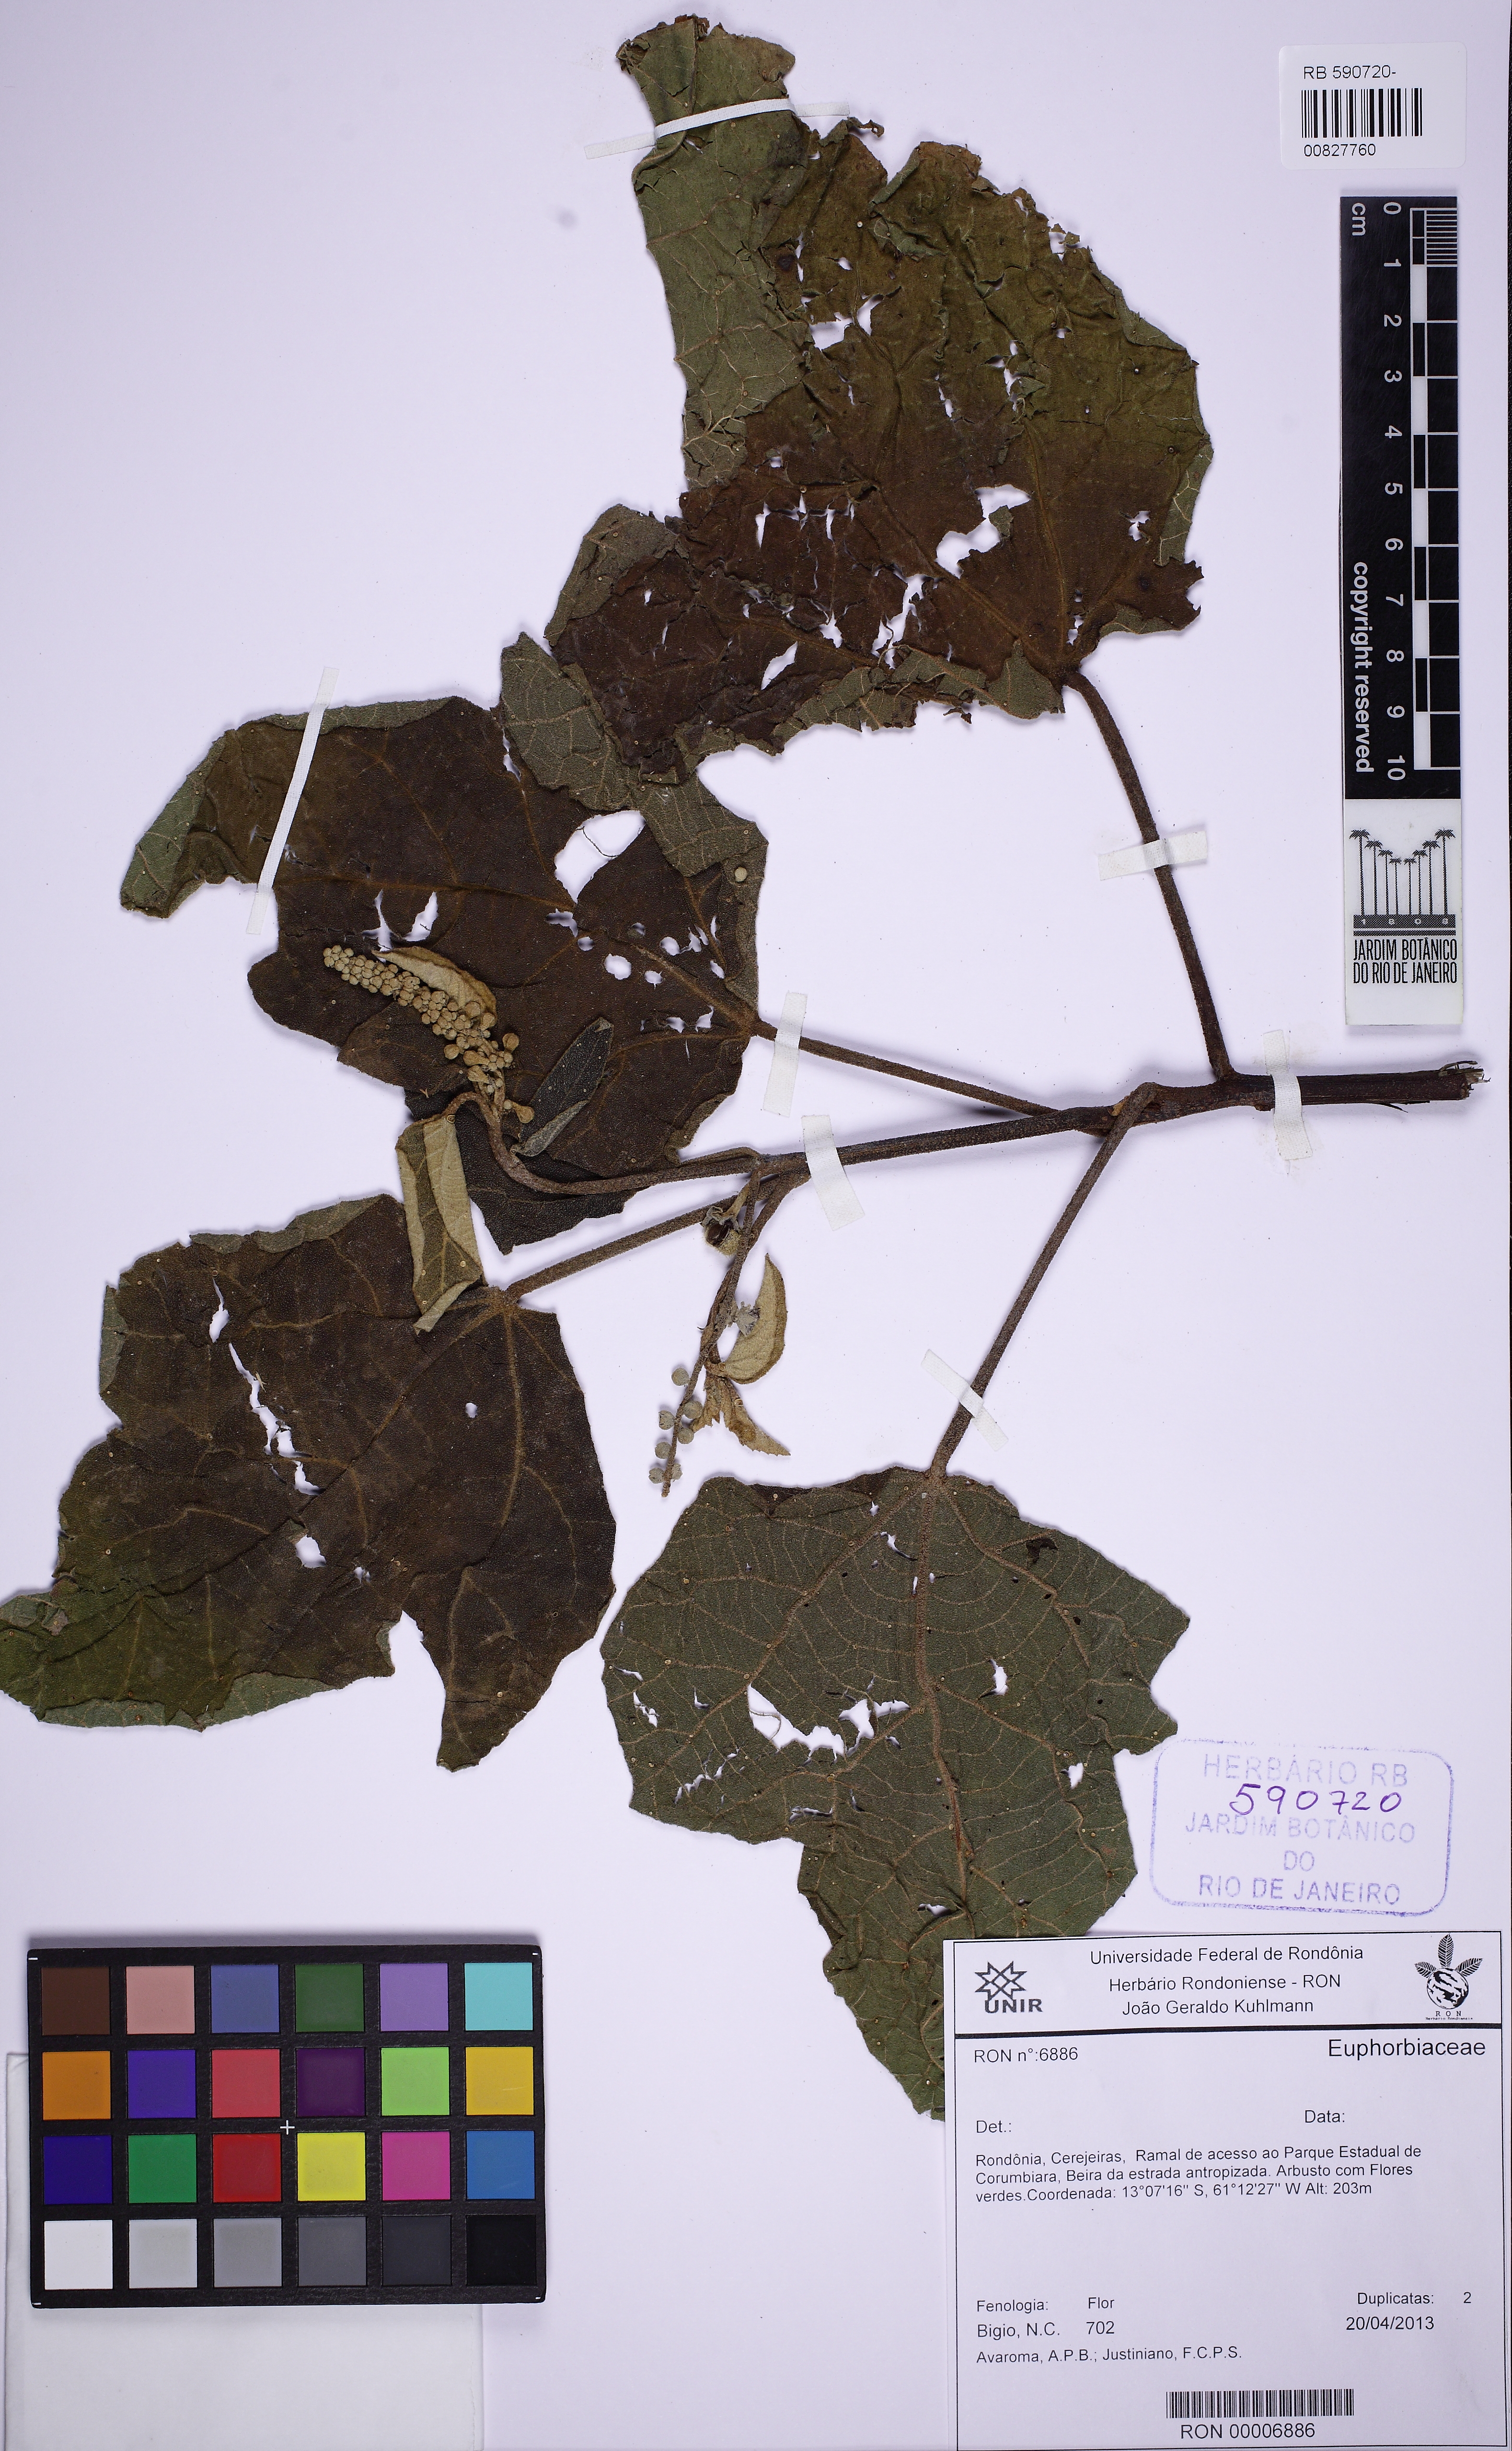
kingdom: Plantae
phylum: Tracheophyta
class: Magnoliopsida
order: Malpighiales
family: Euphorbiaceae
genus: Croton
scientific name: Croton palanostigma
